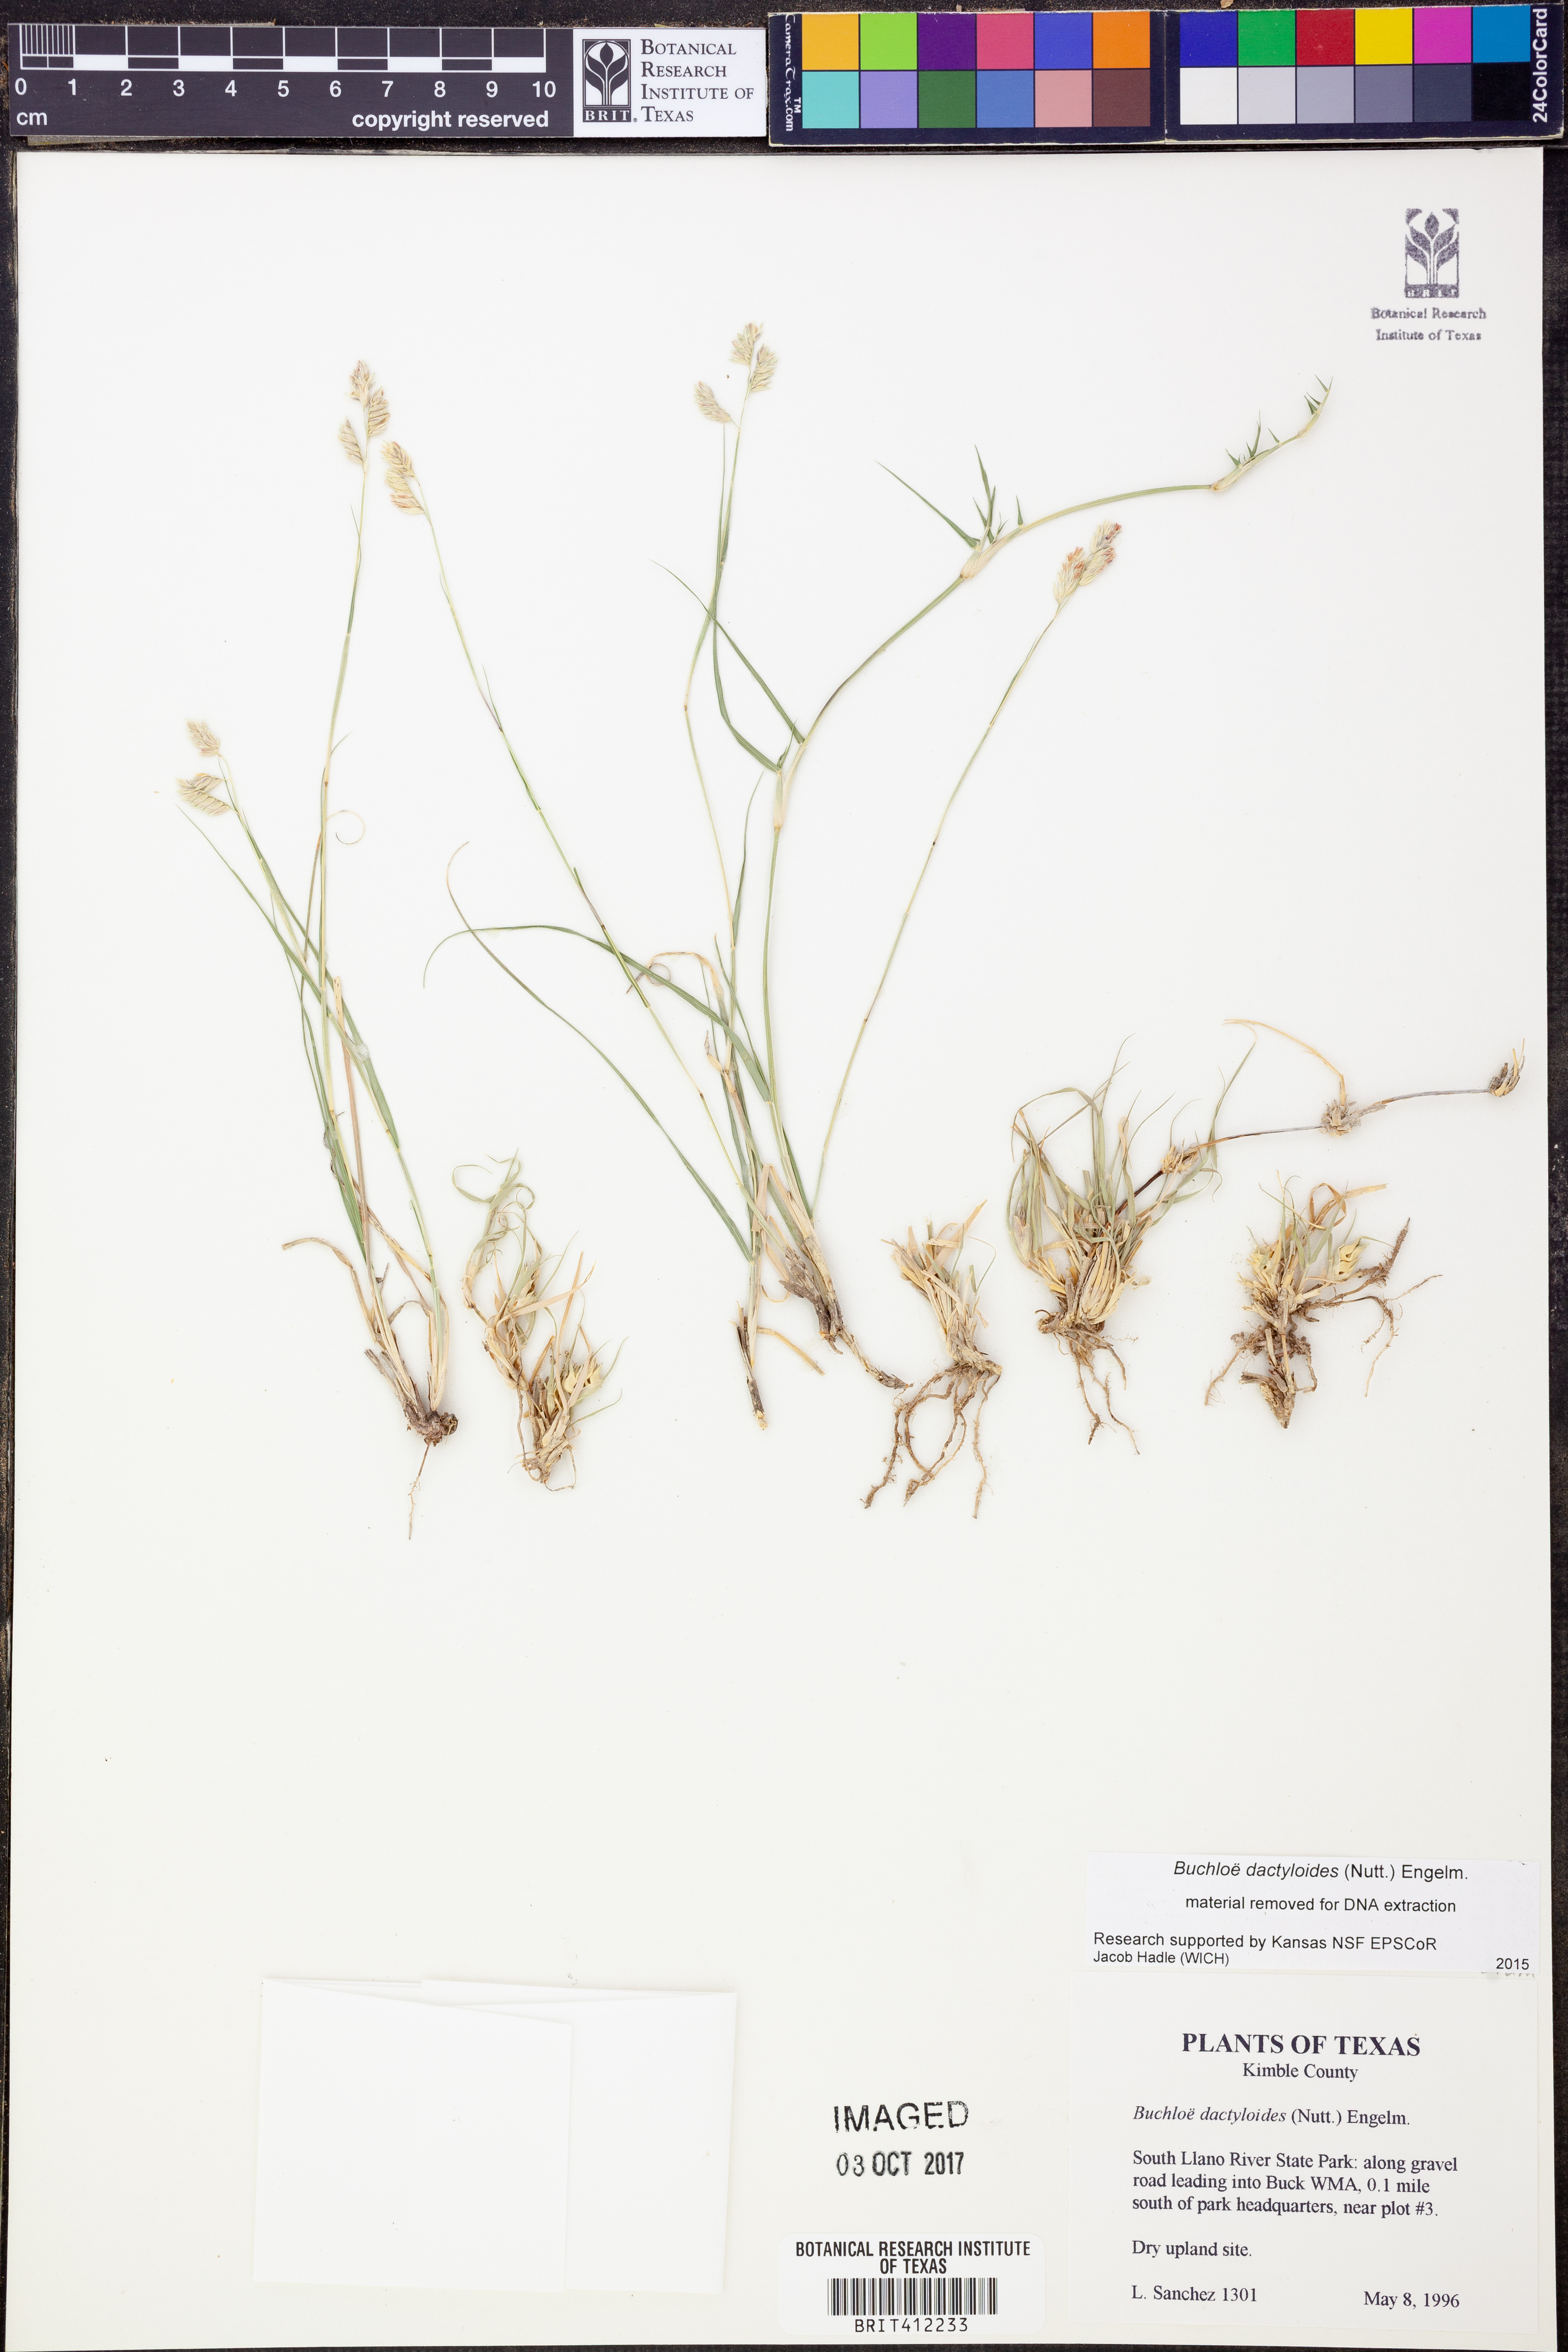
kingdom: Plantae
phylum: Tracheophyta
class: Liliopsida
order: Poales
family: Poaceae
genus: Bouteloua
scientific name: Bouteloua dactyloides
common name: Buffalo grass
